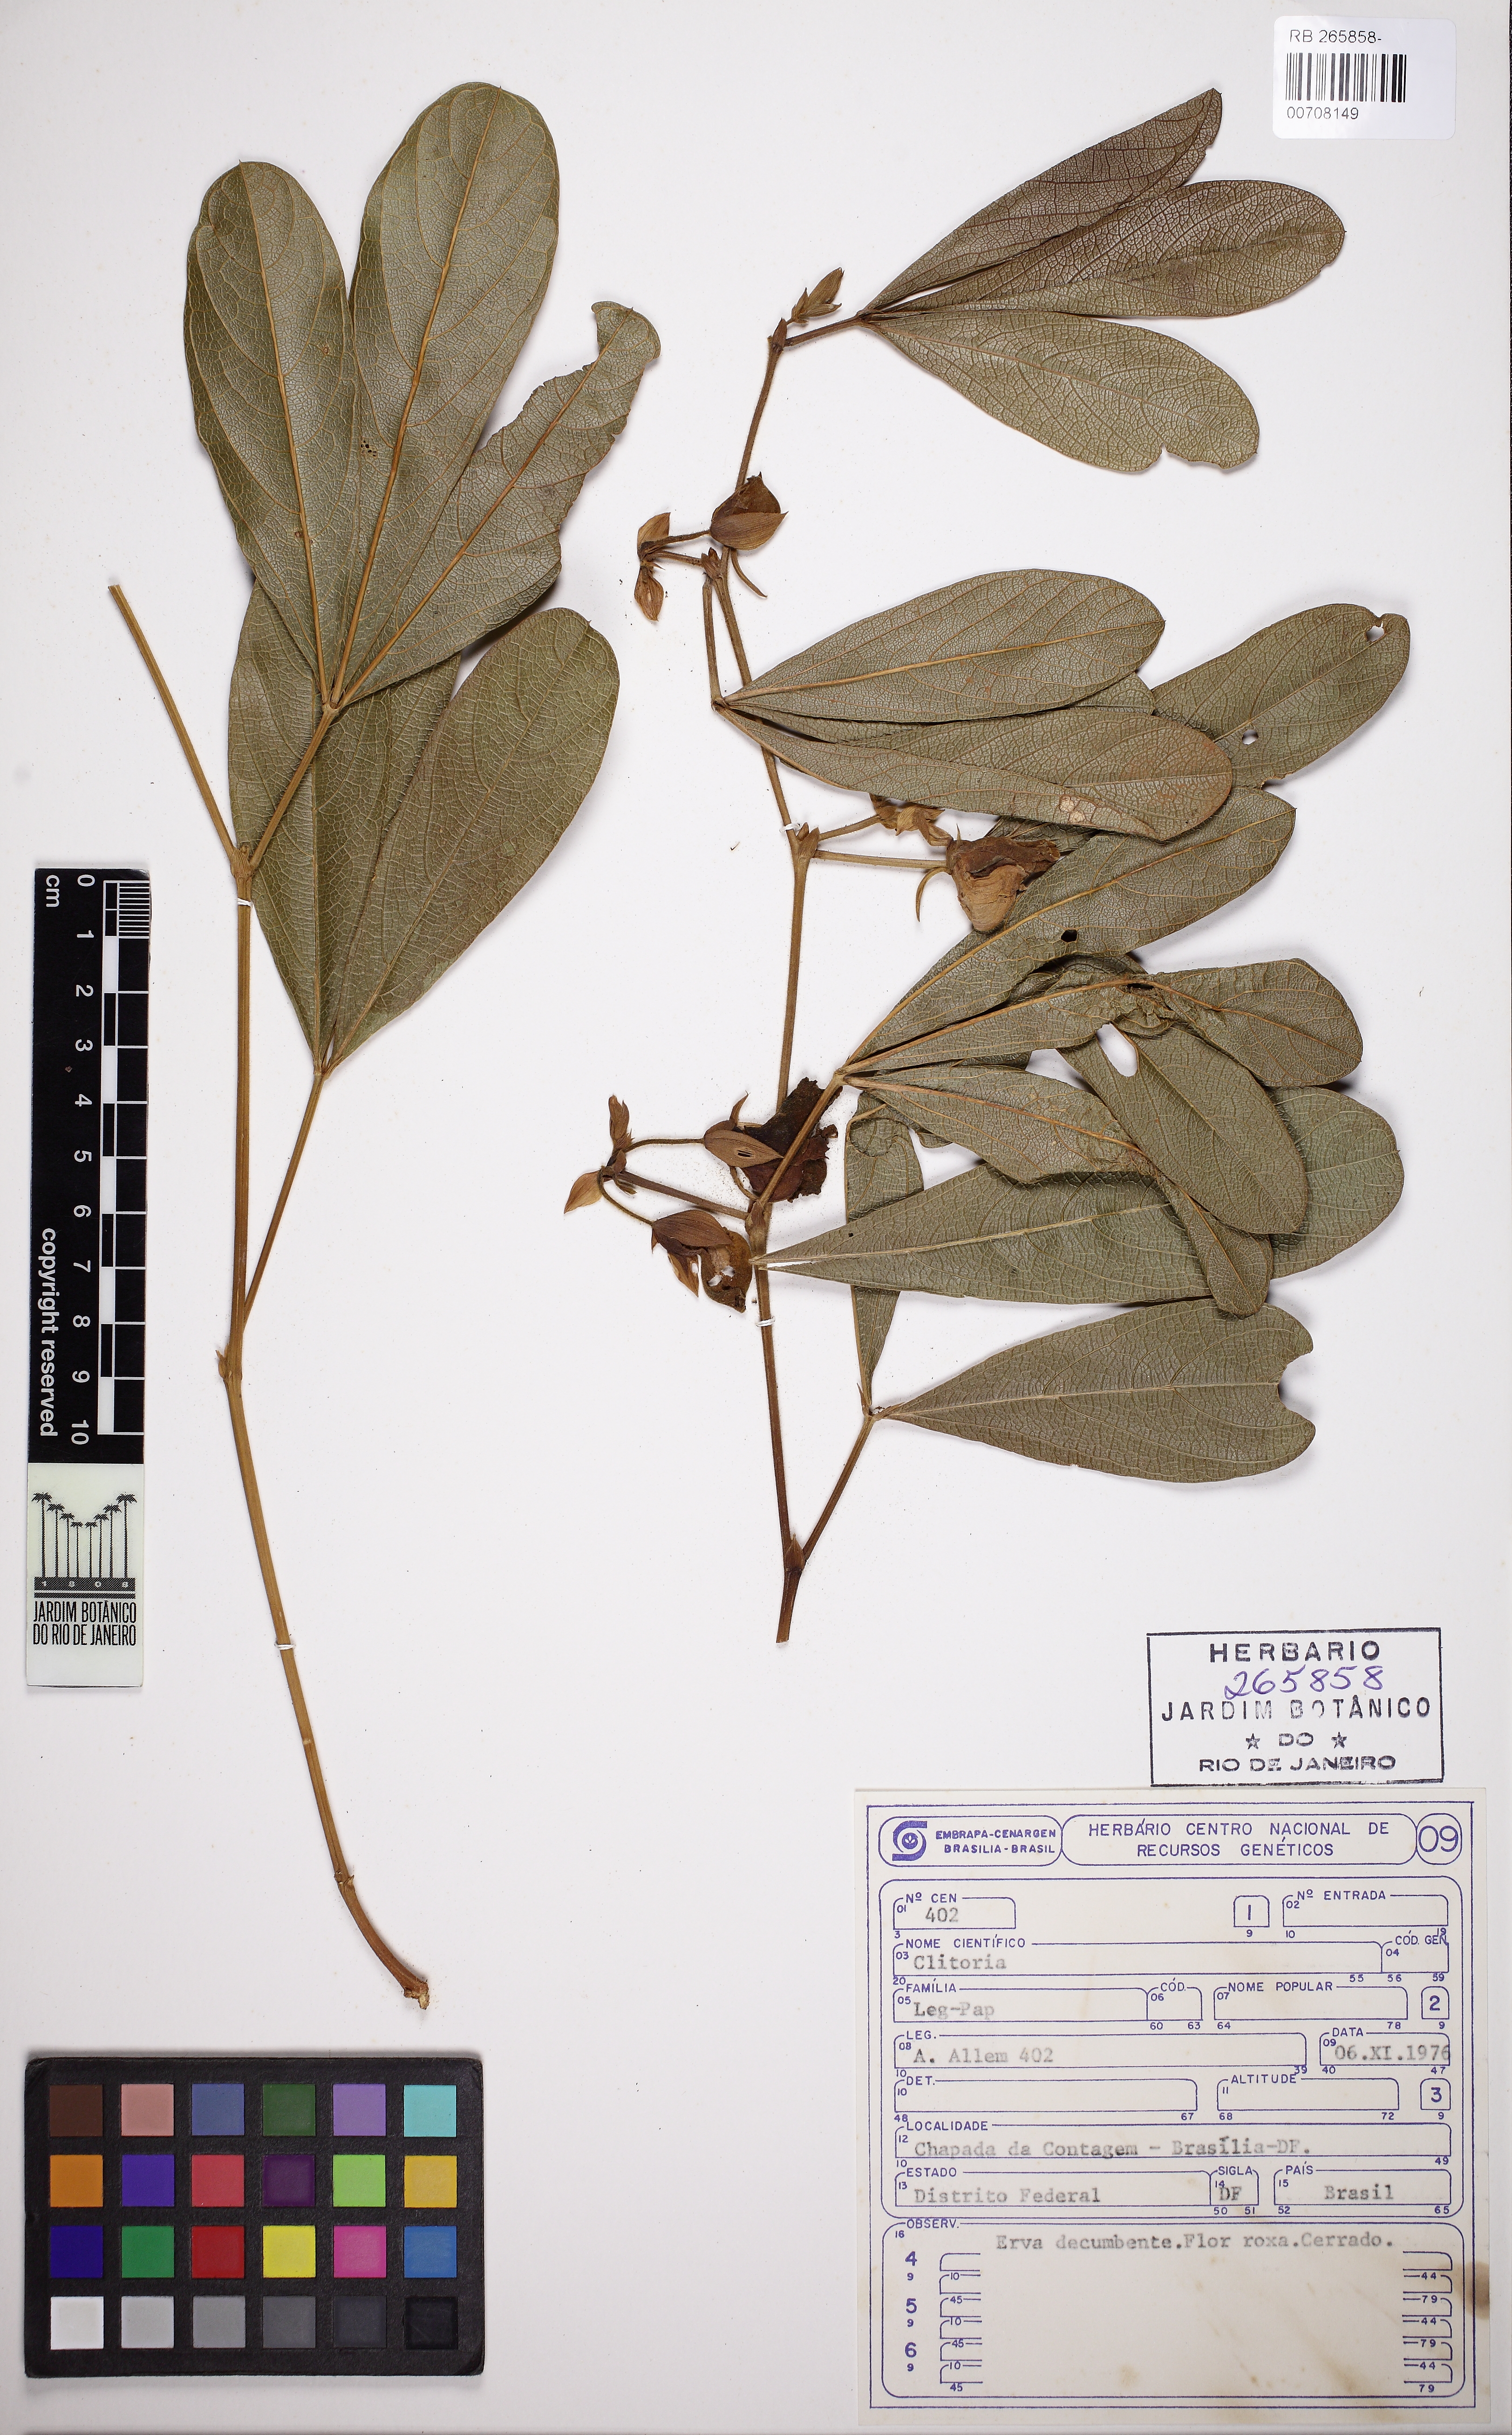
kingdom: Plantae
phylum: Tracheophyta
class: Magnoliopsida
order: Fabales
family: Fabaceae
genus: Centrosema
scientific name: Centrosema bracteosum
